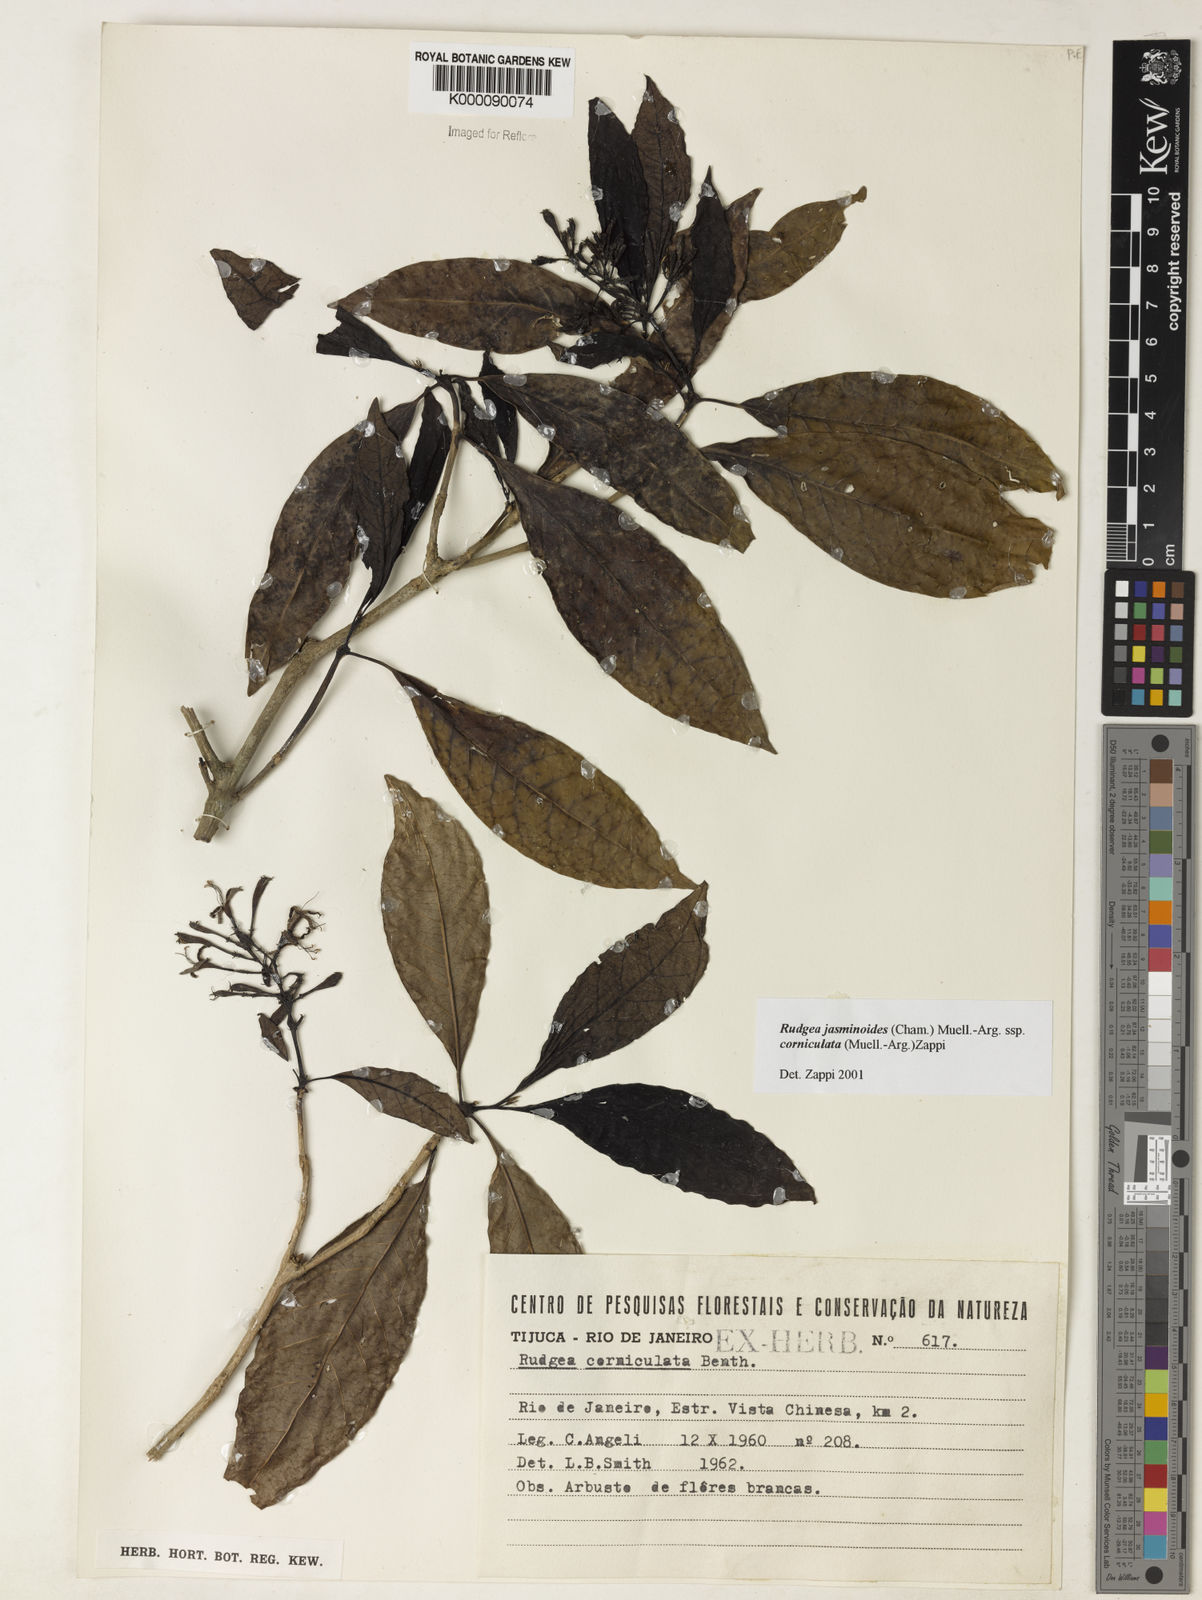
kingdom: Plantae
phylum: Tracheophyta
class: Magnoliopsida
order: Gentianales
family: Rubiaceae
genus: Rudgea
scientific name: Rudgea jasminoides
